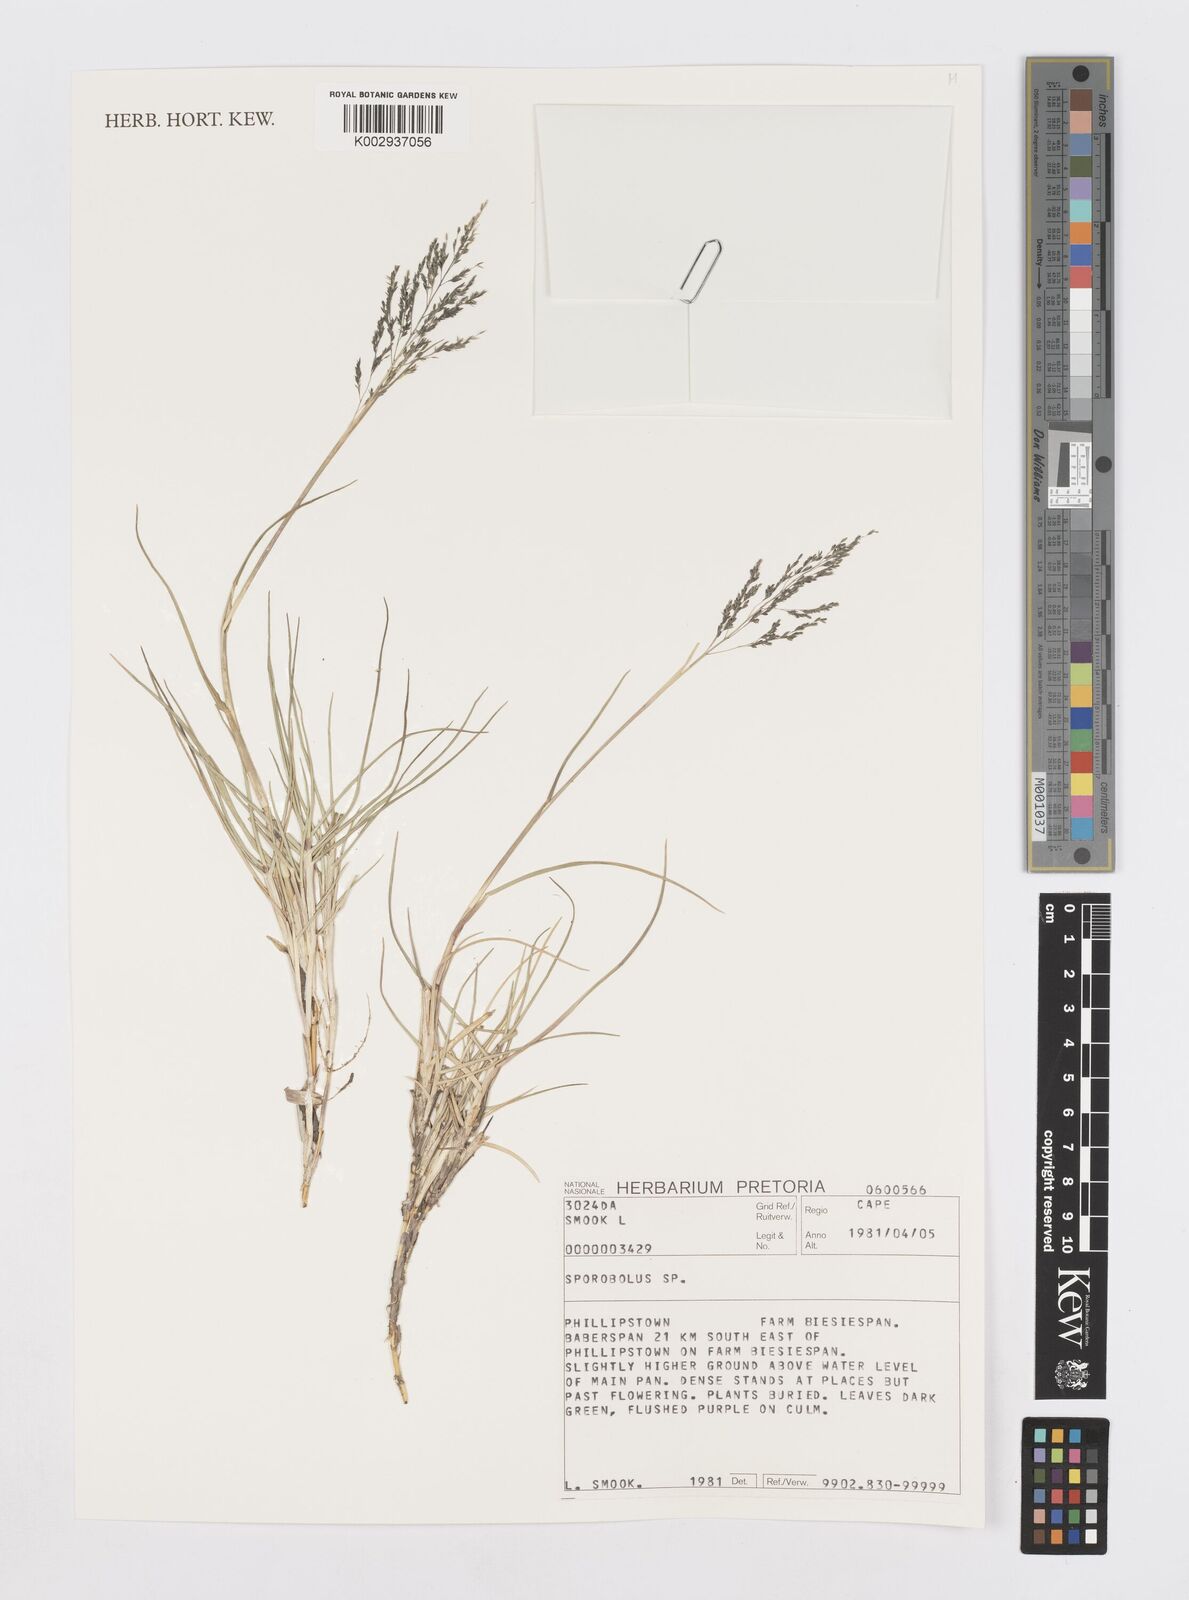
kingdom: Plantae
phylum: Tracheophyta
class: Liliopsida
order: Poales
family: Poaceae
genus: Sporobolus
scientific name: Sporobolus
